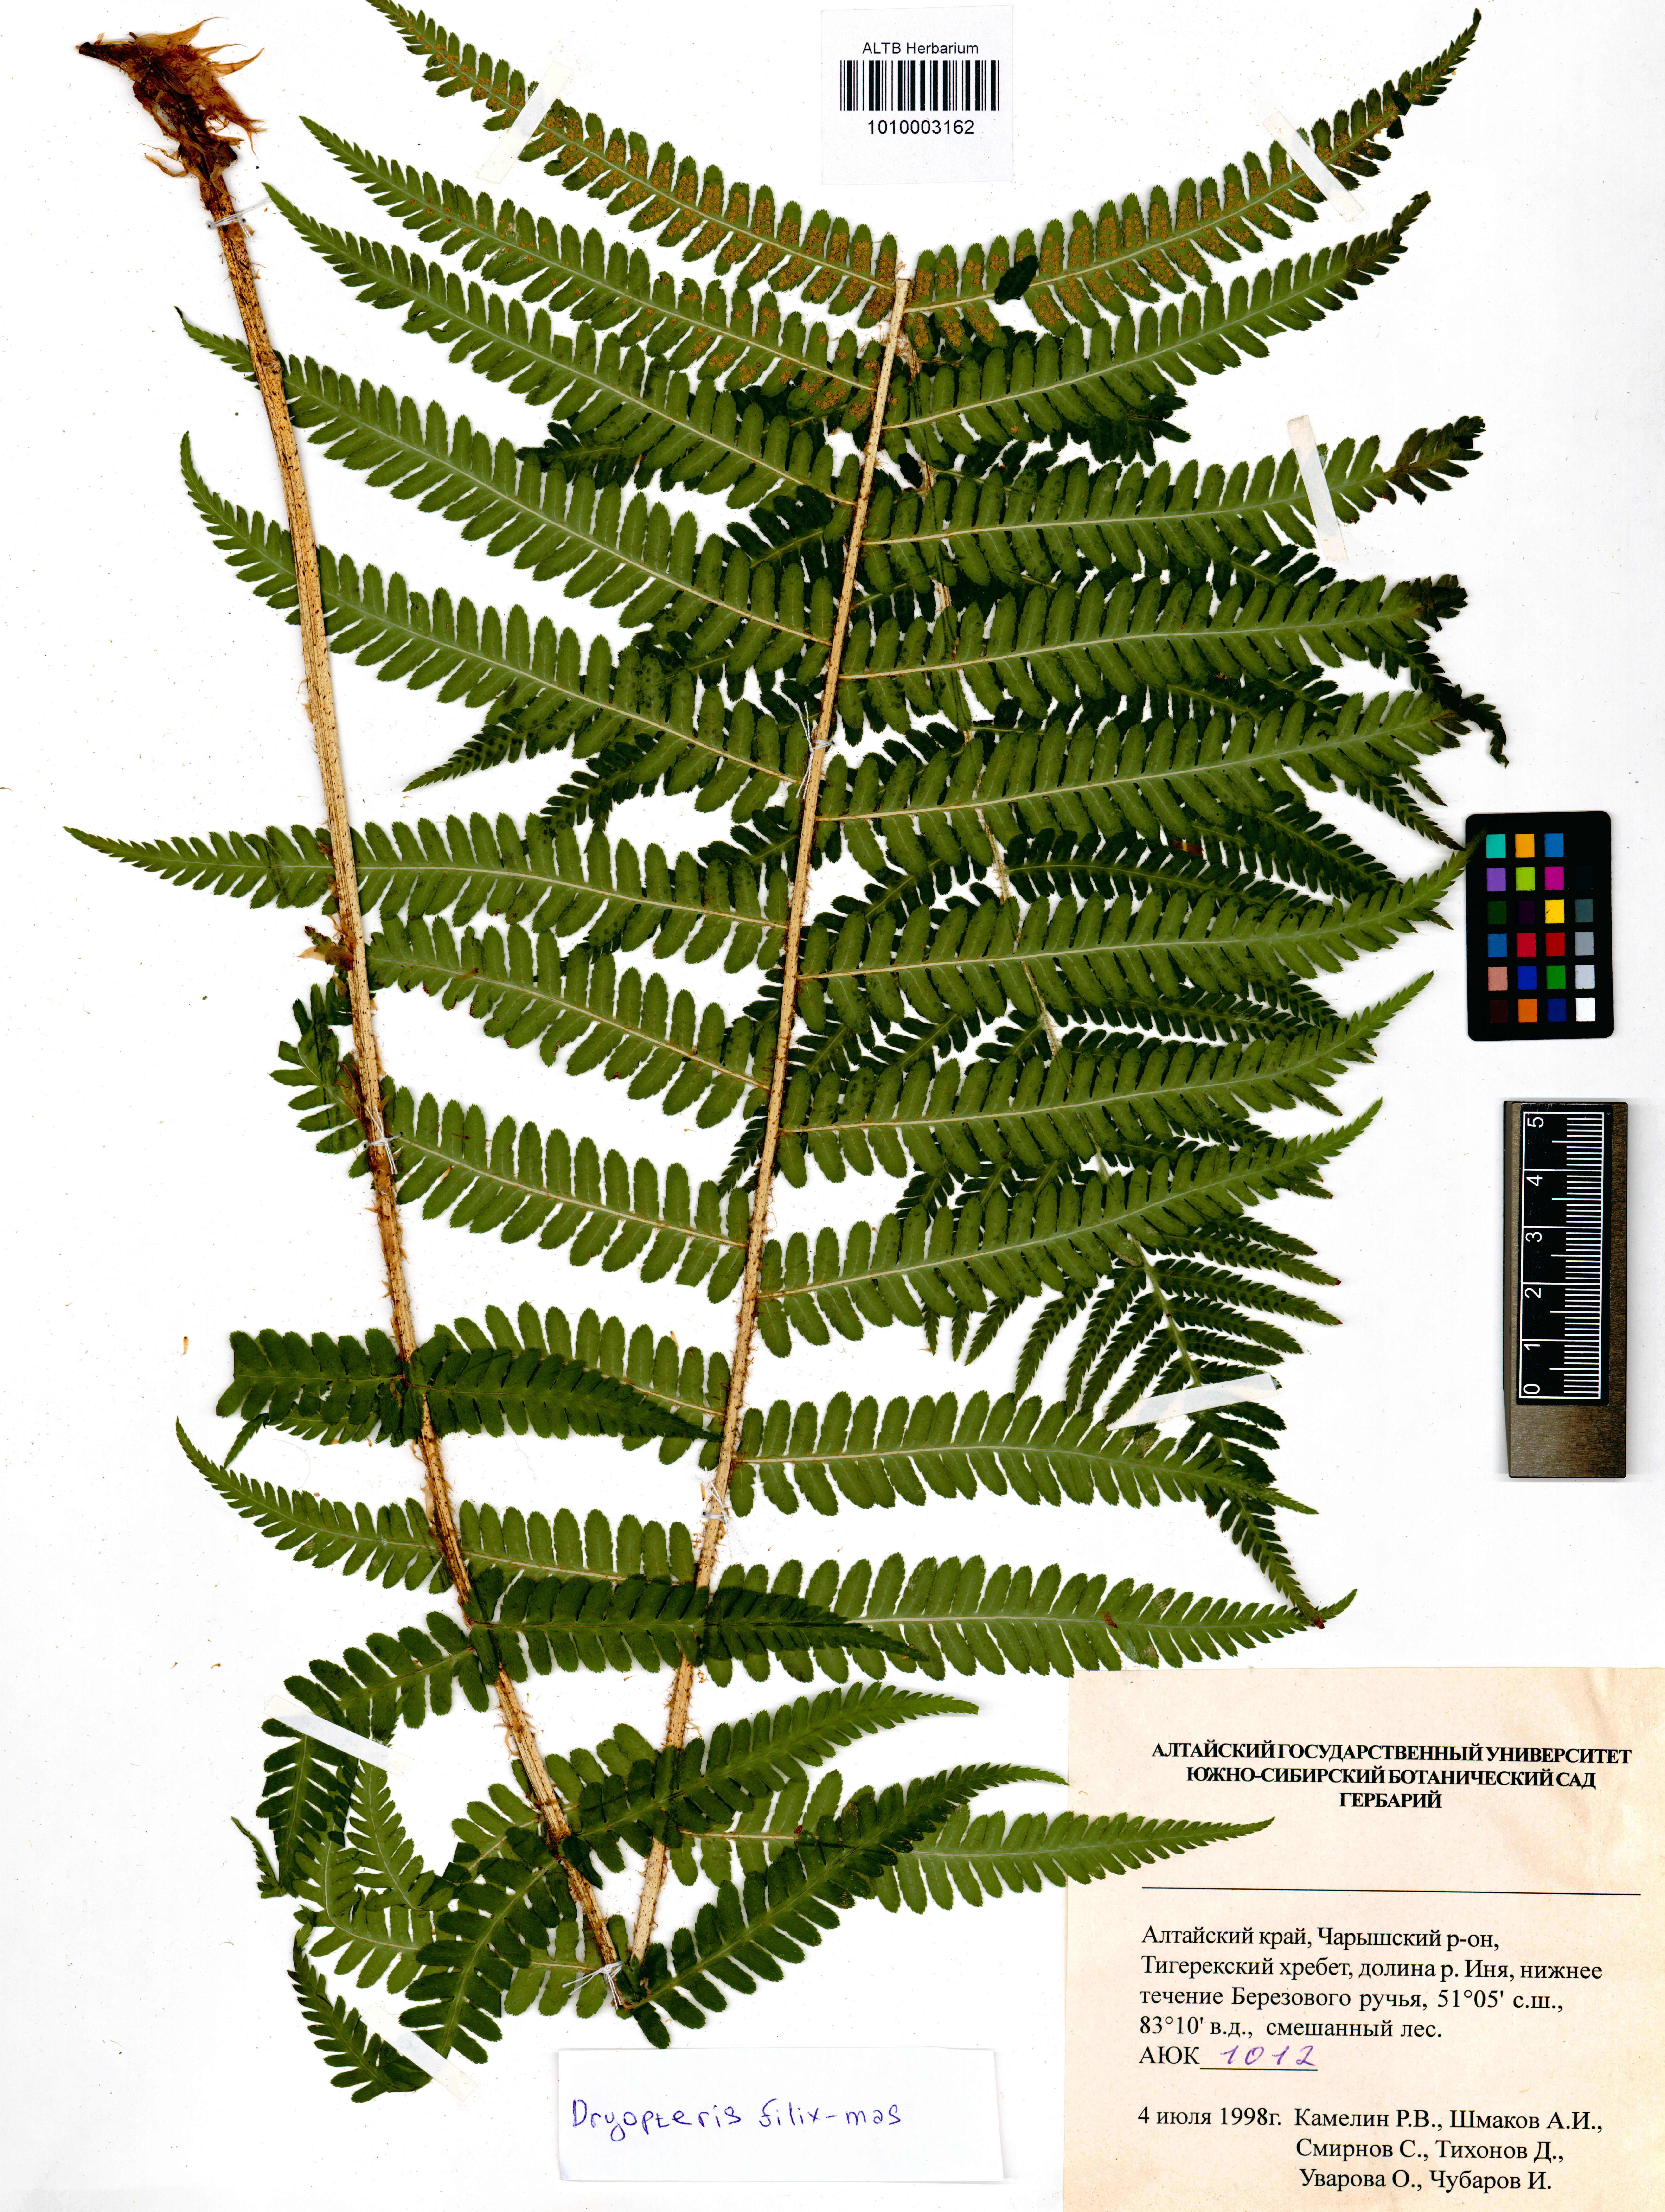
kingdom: Plantae
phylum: Tracheophyta
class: Polypodiopsida
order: Polypodiales
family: Dryopteridaceae
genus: Dryopteris
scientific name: Dryopteris filix-mas
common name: Male fern
